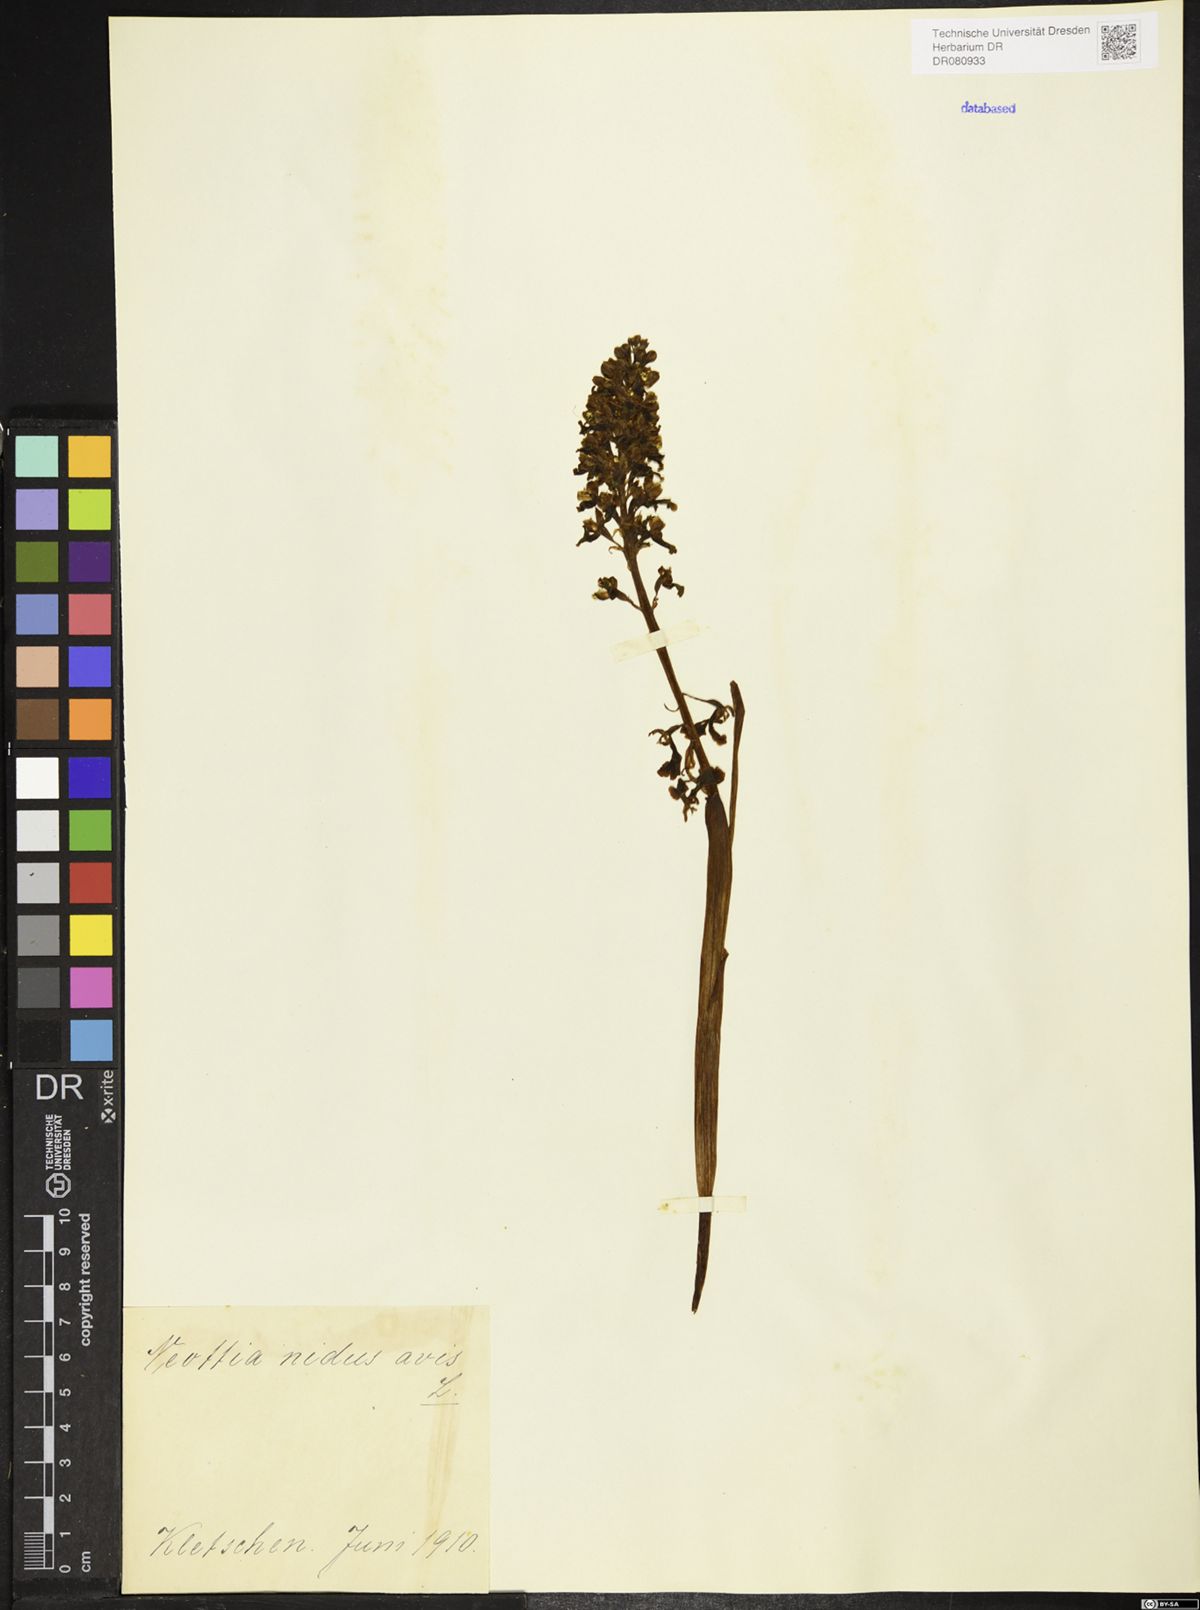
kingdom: Plantae
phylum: Tracheophyta
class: Liliopsida
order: Asparagales
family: Orchidaceae
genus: Neottia
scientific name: Neottia nidus-avis
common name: Bird's-nest orchid
